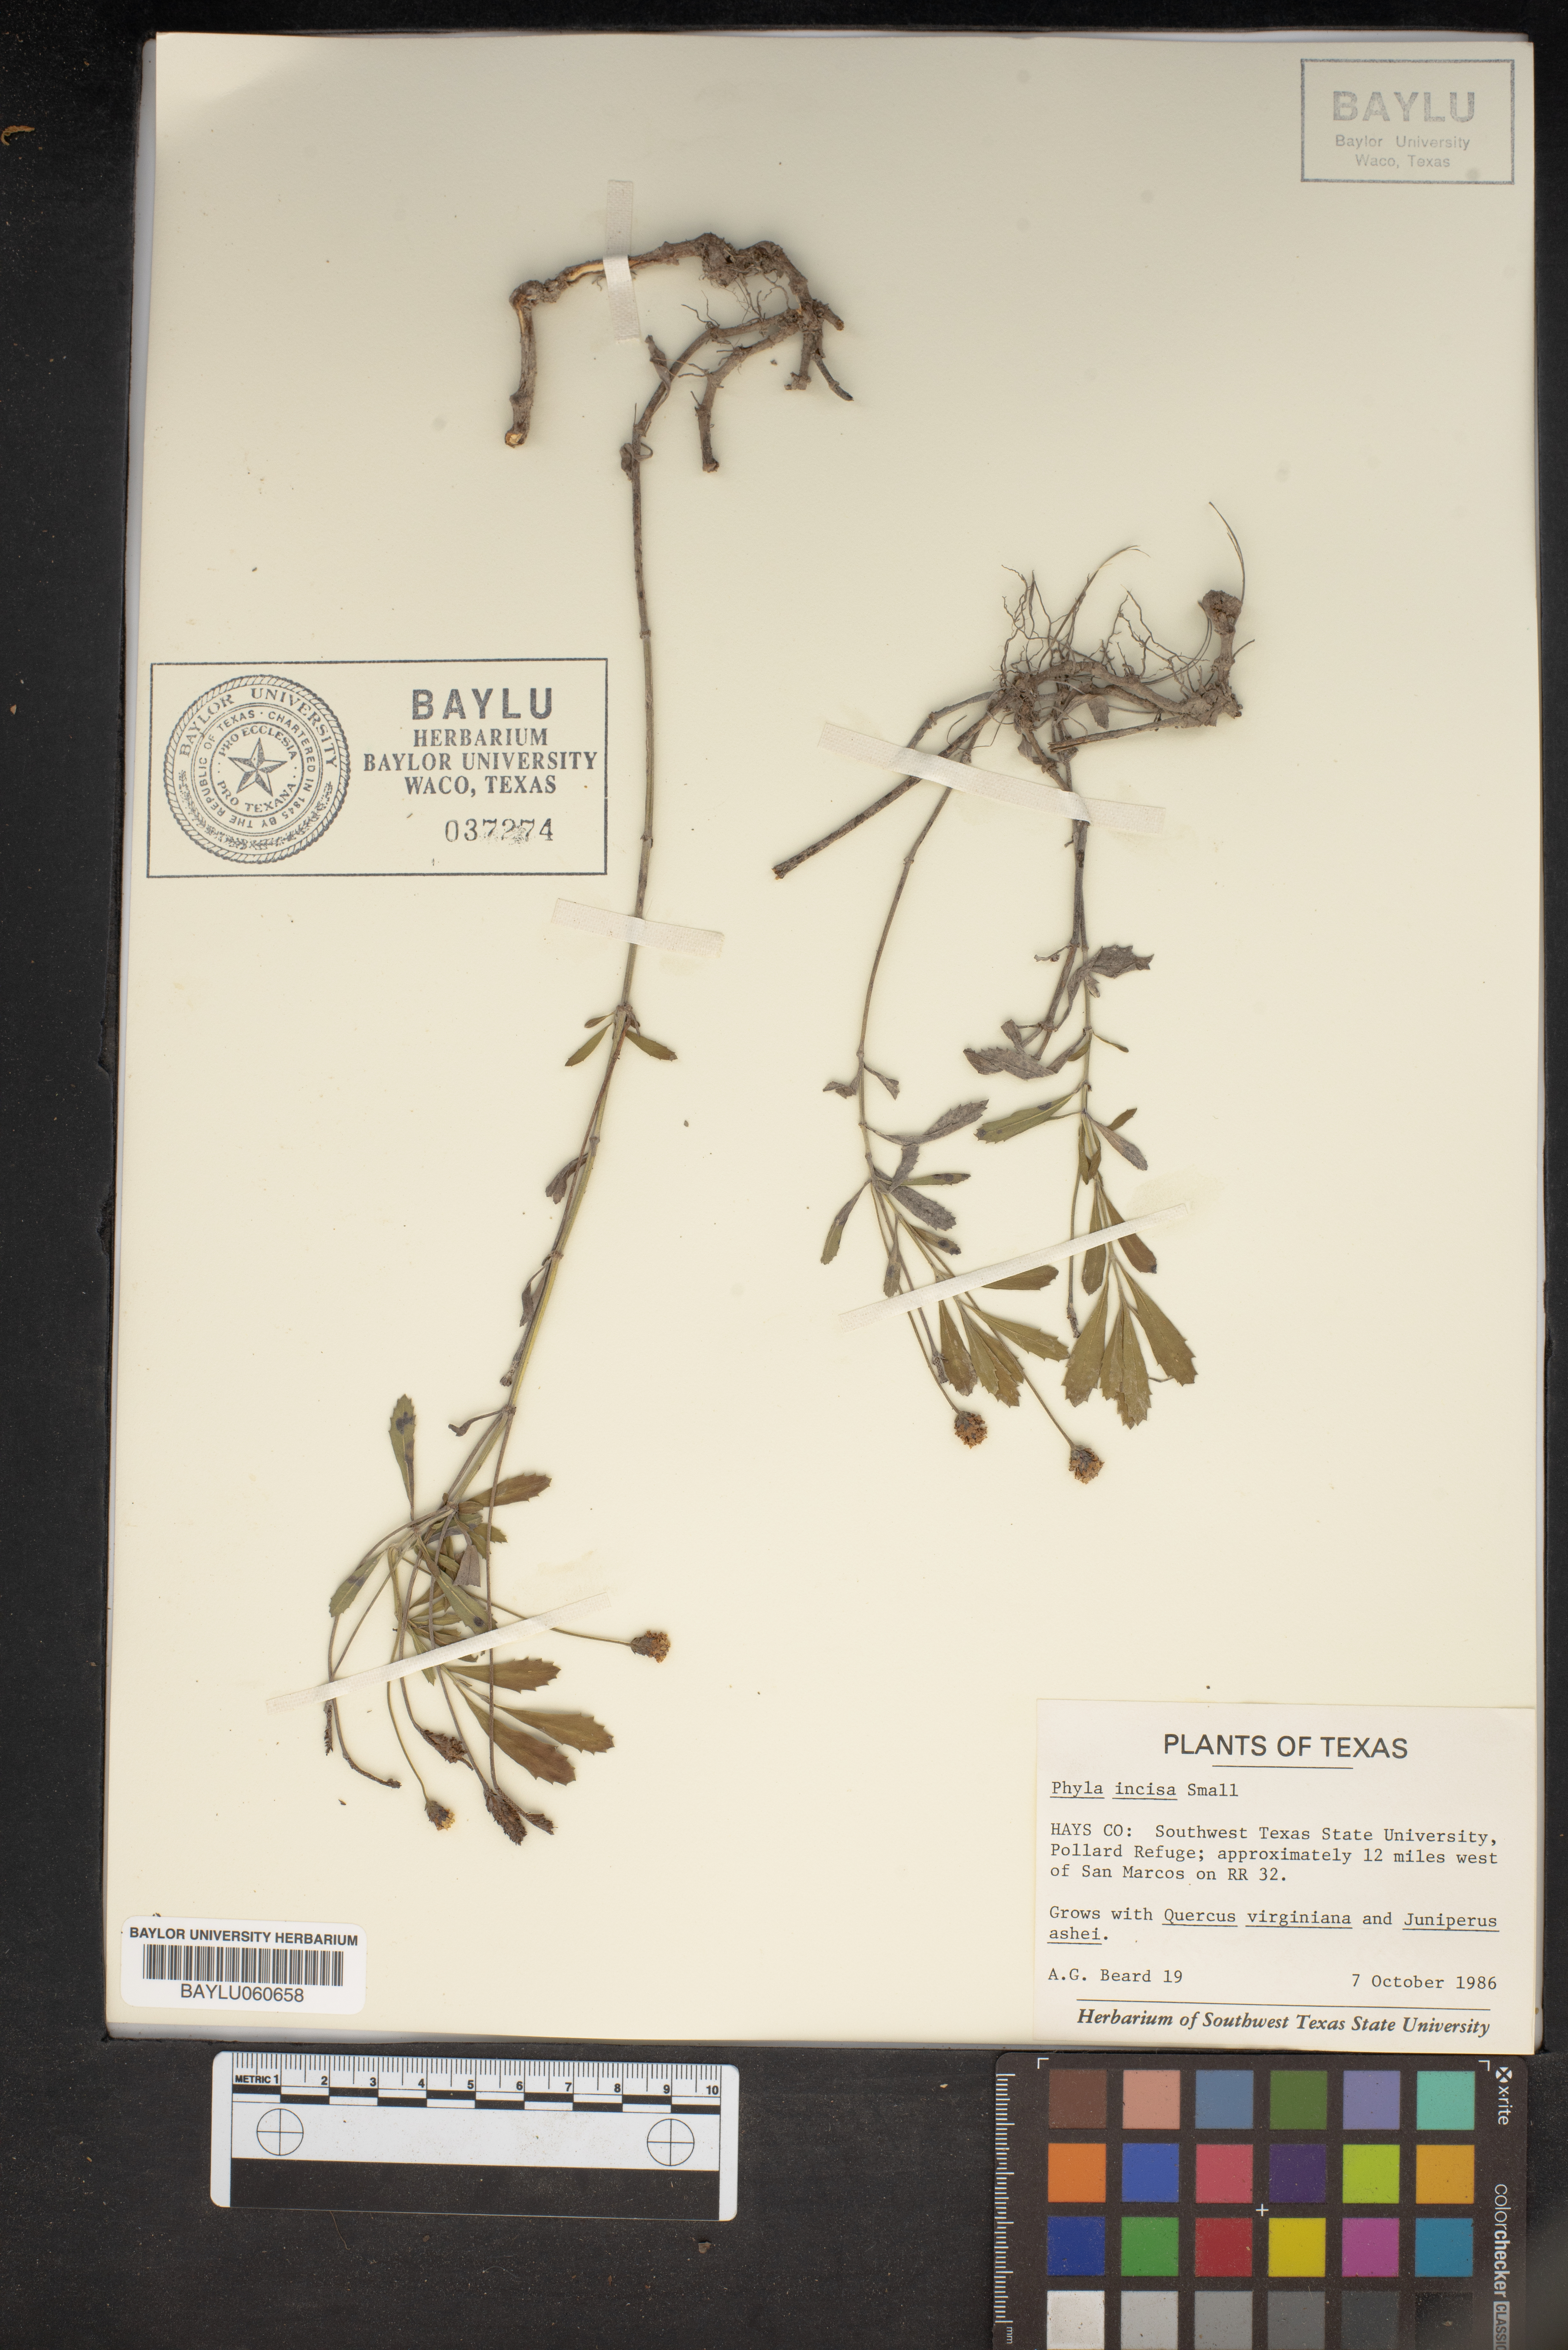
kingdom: Plantae
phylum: Tracheophyta
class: Magnoliopsida
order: Lamiales
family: Verbenaceae
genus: Phyla
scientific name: Phyla nodiflora
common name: Frogfruit
